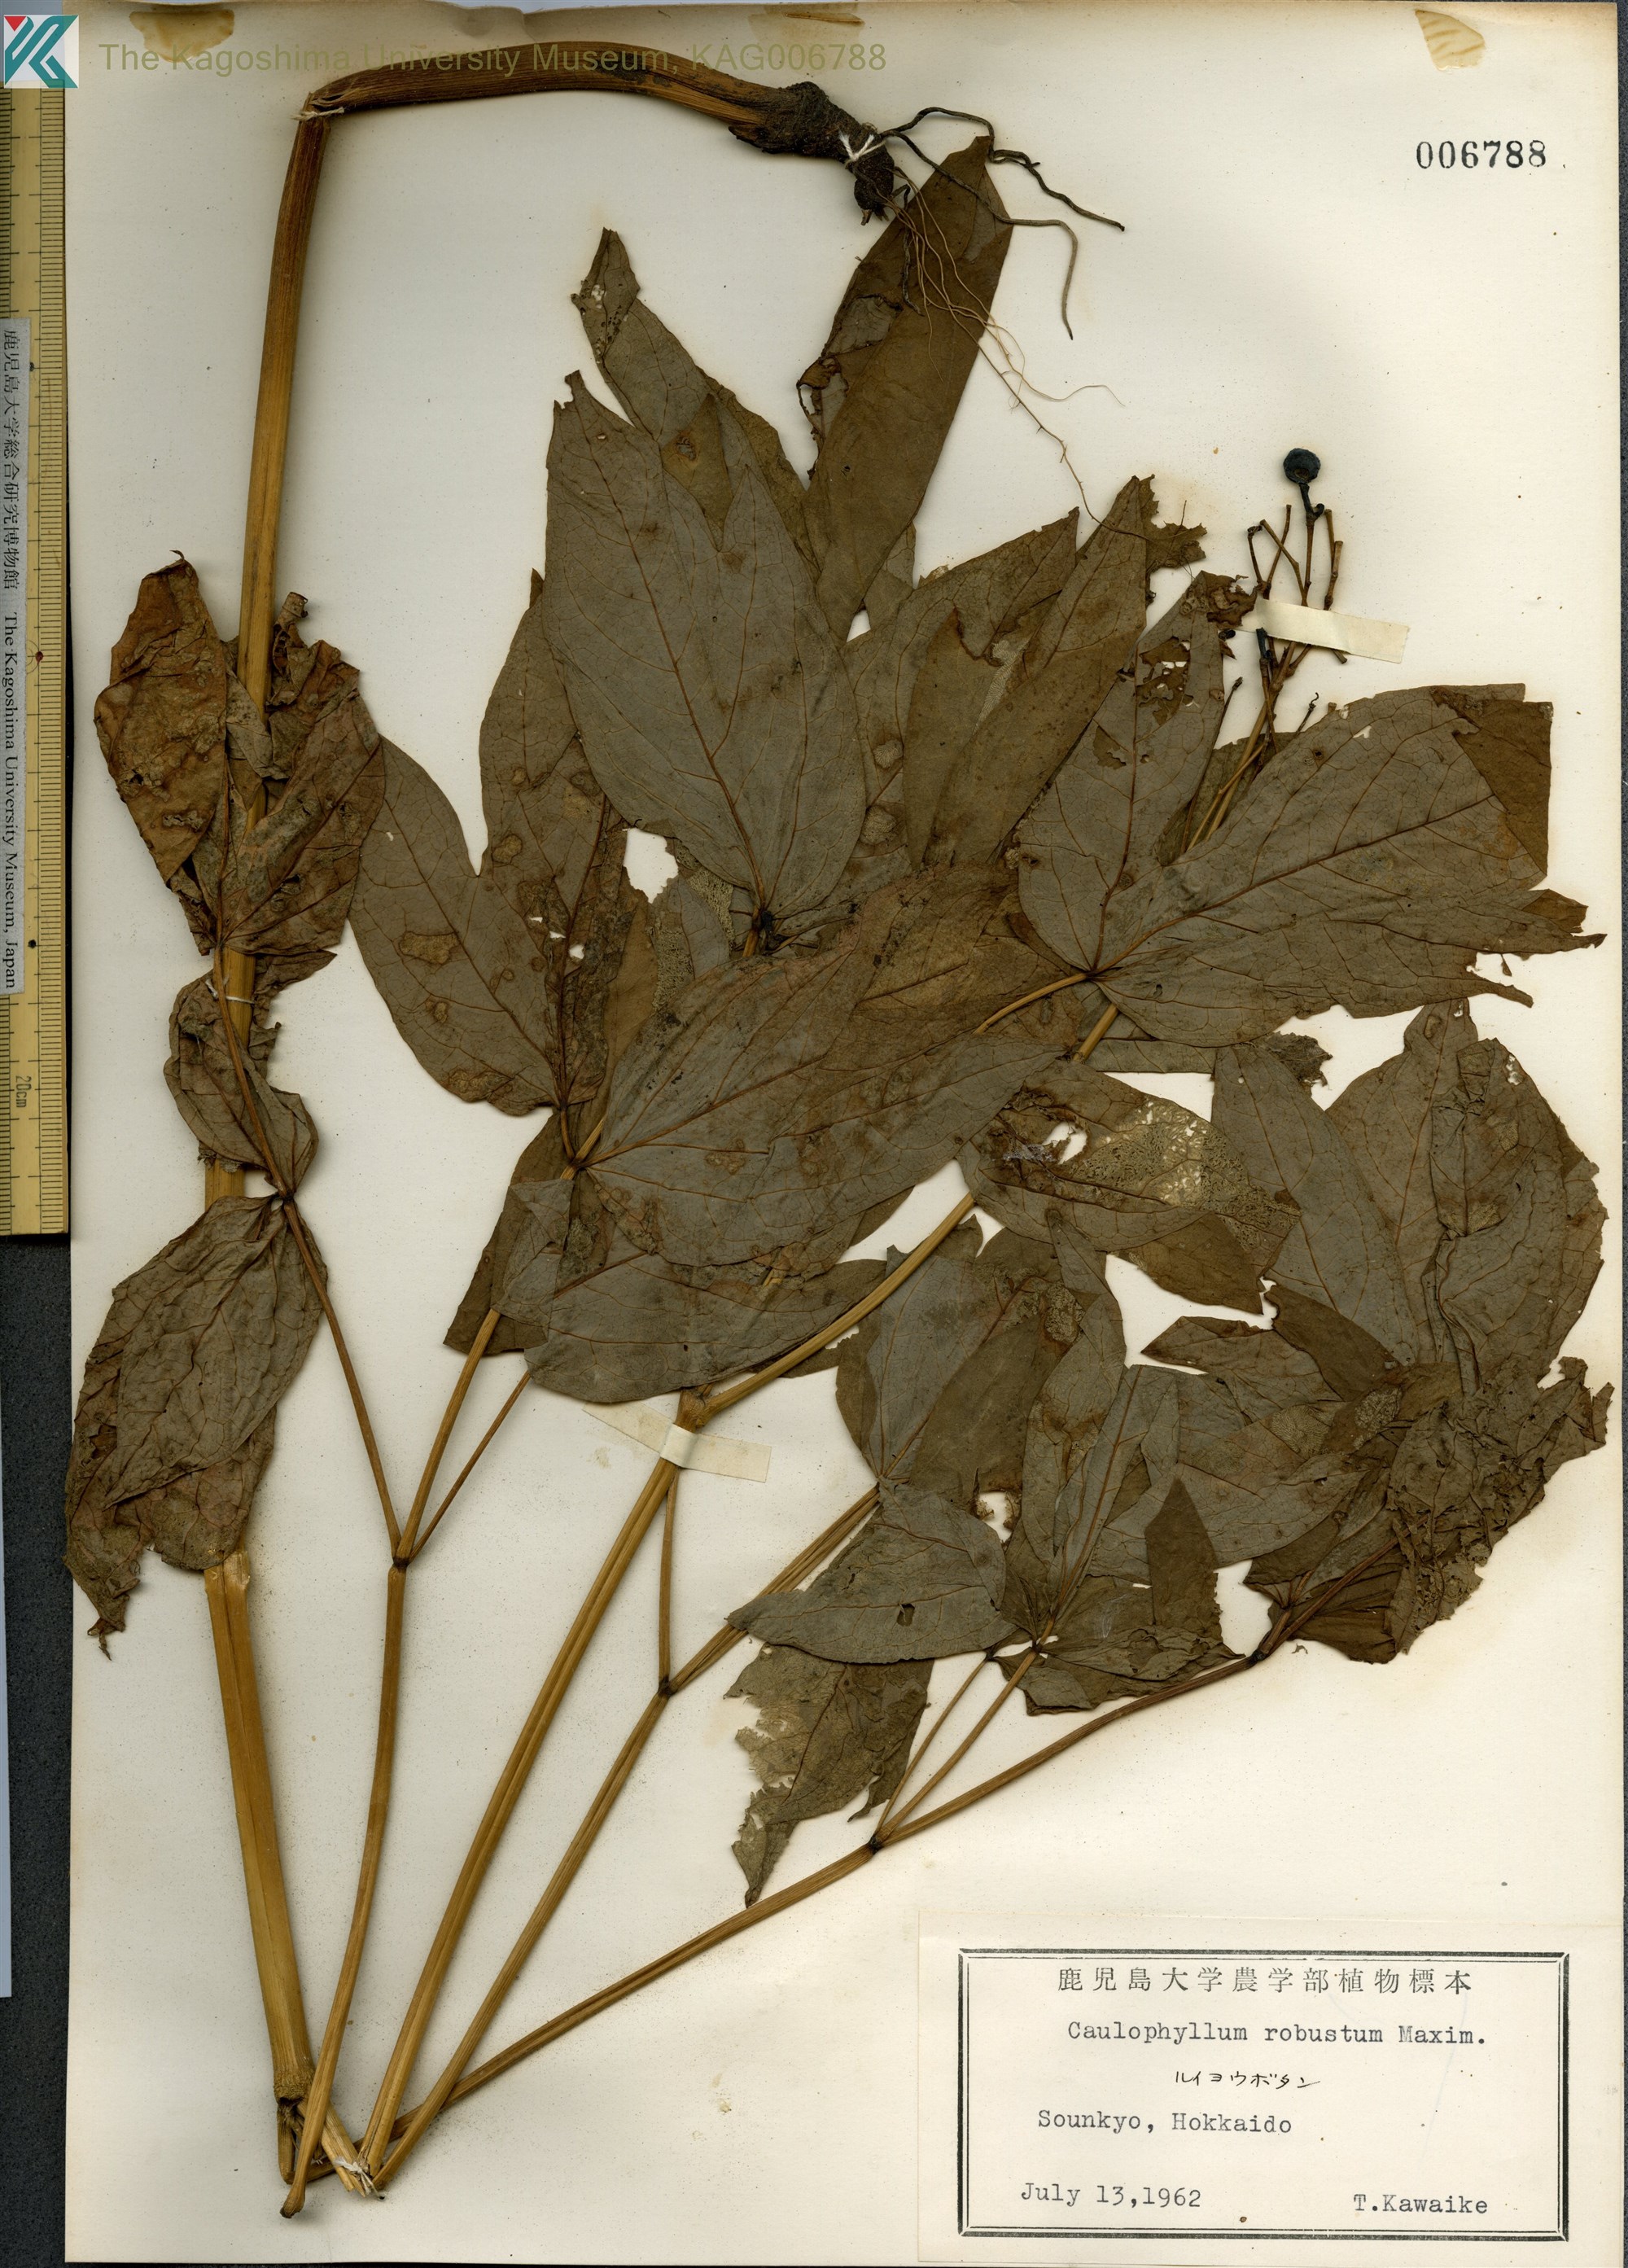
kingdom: Plantae
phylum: Tracheophyta
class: Magnoliopsida
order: Ranunculales
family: Berberidaceae
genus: Caulophyllum
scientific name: Caulophyllum robustum
